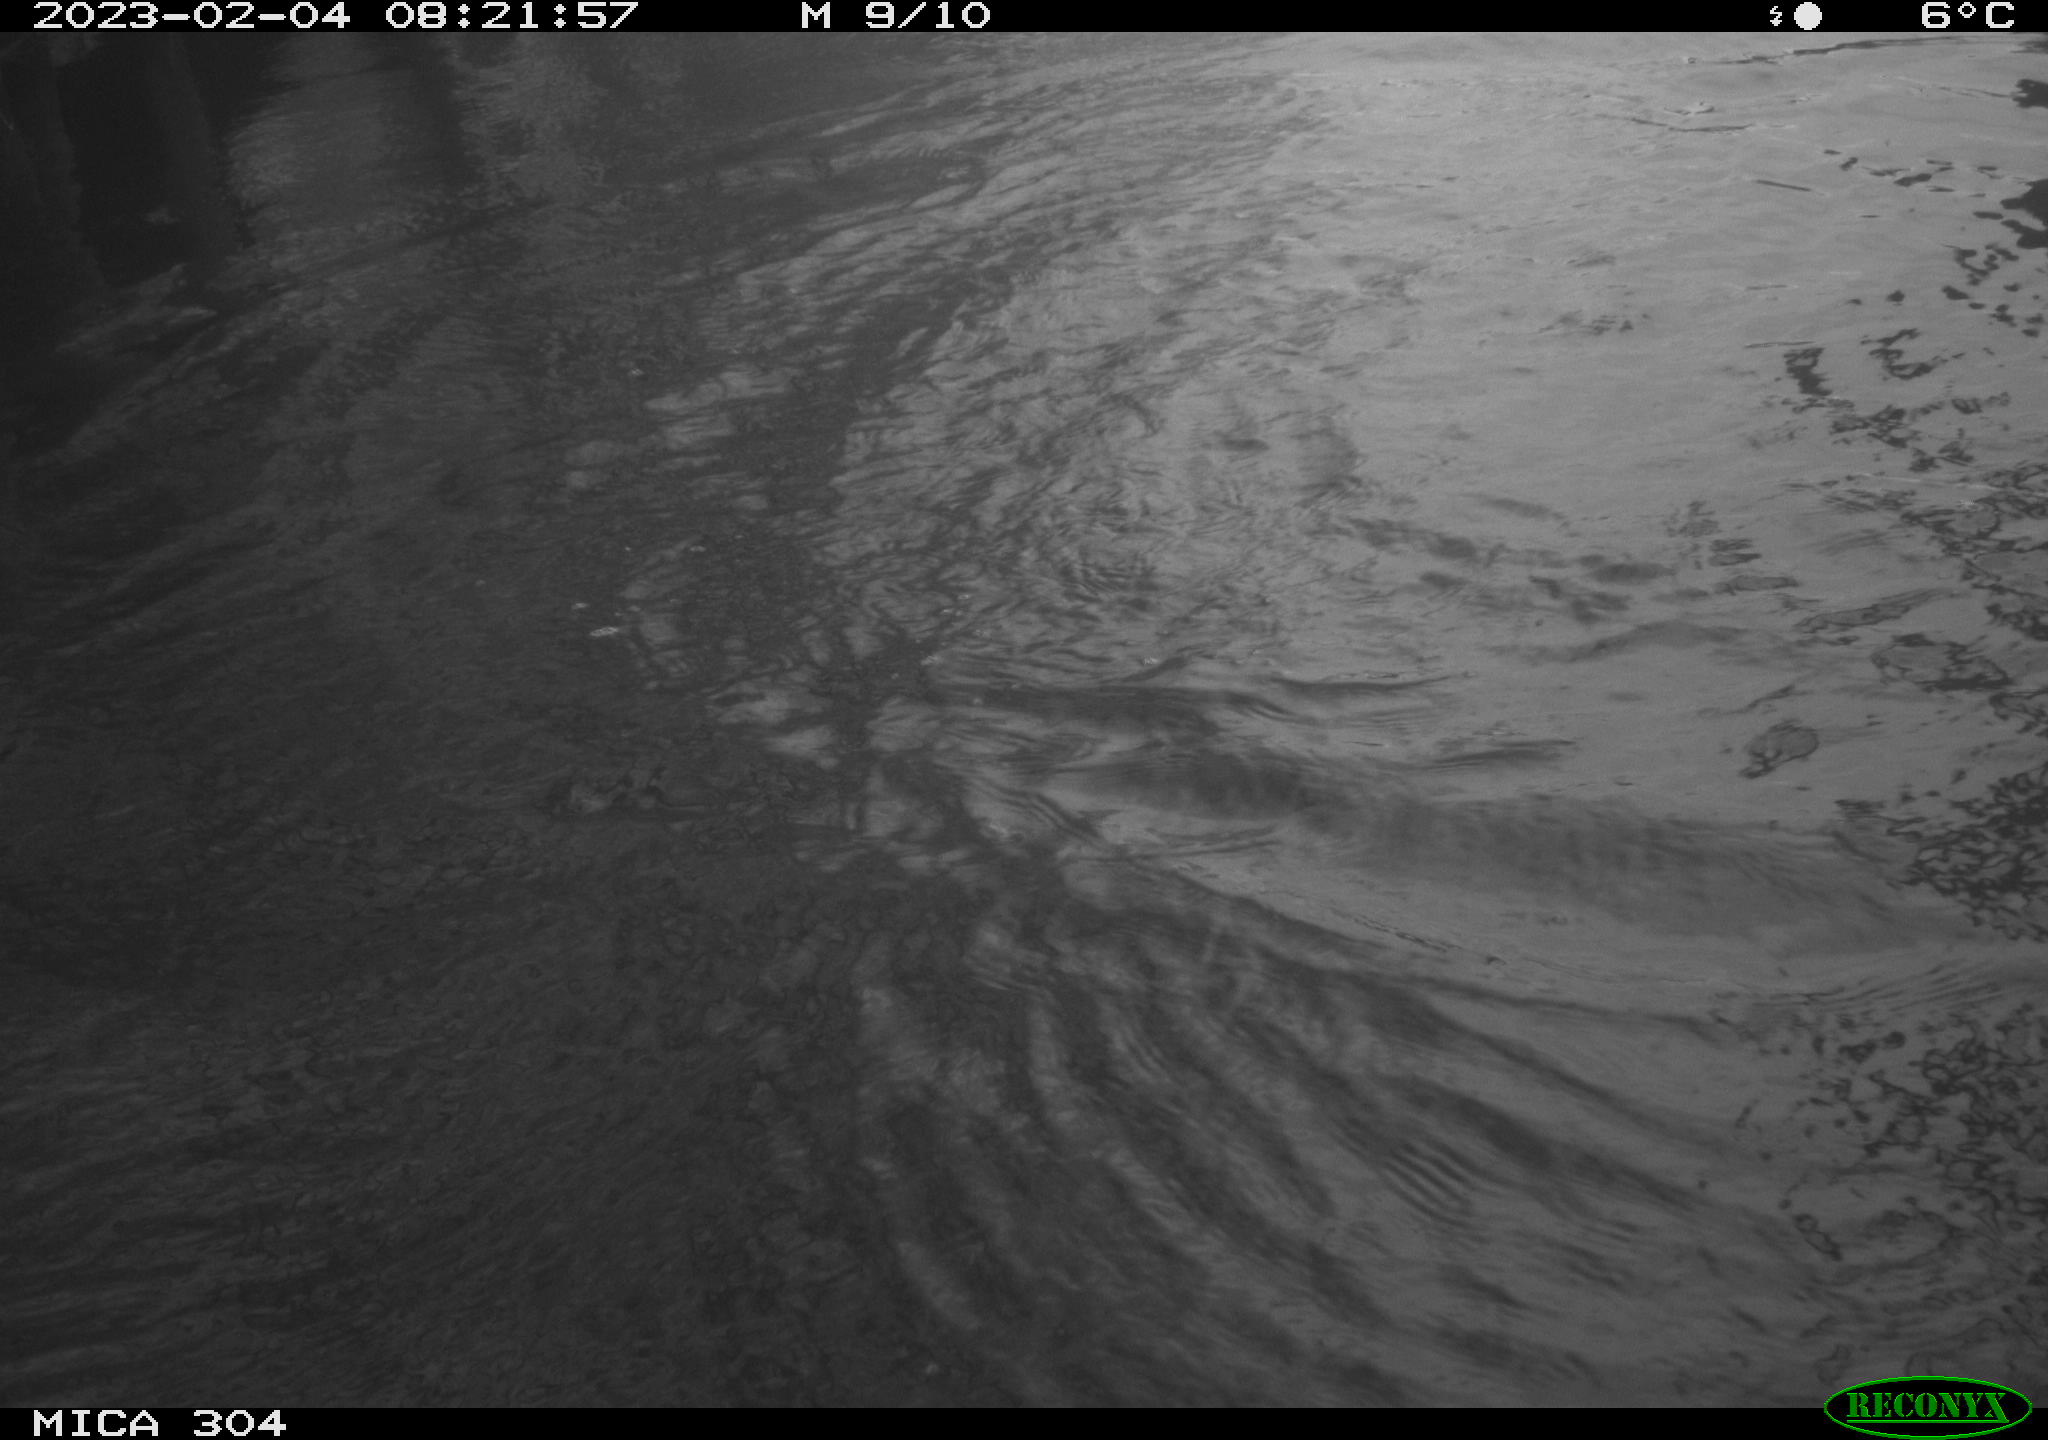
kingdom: Animalia
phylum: Chordata
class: Aves
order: Anseriformes
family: Anatidae
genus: Anas
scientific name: Anas
